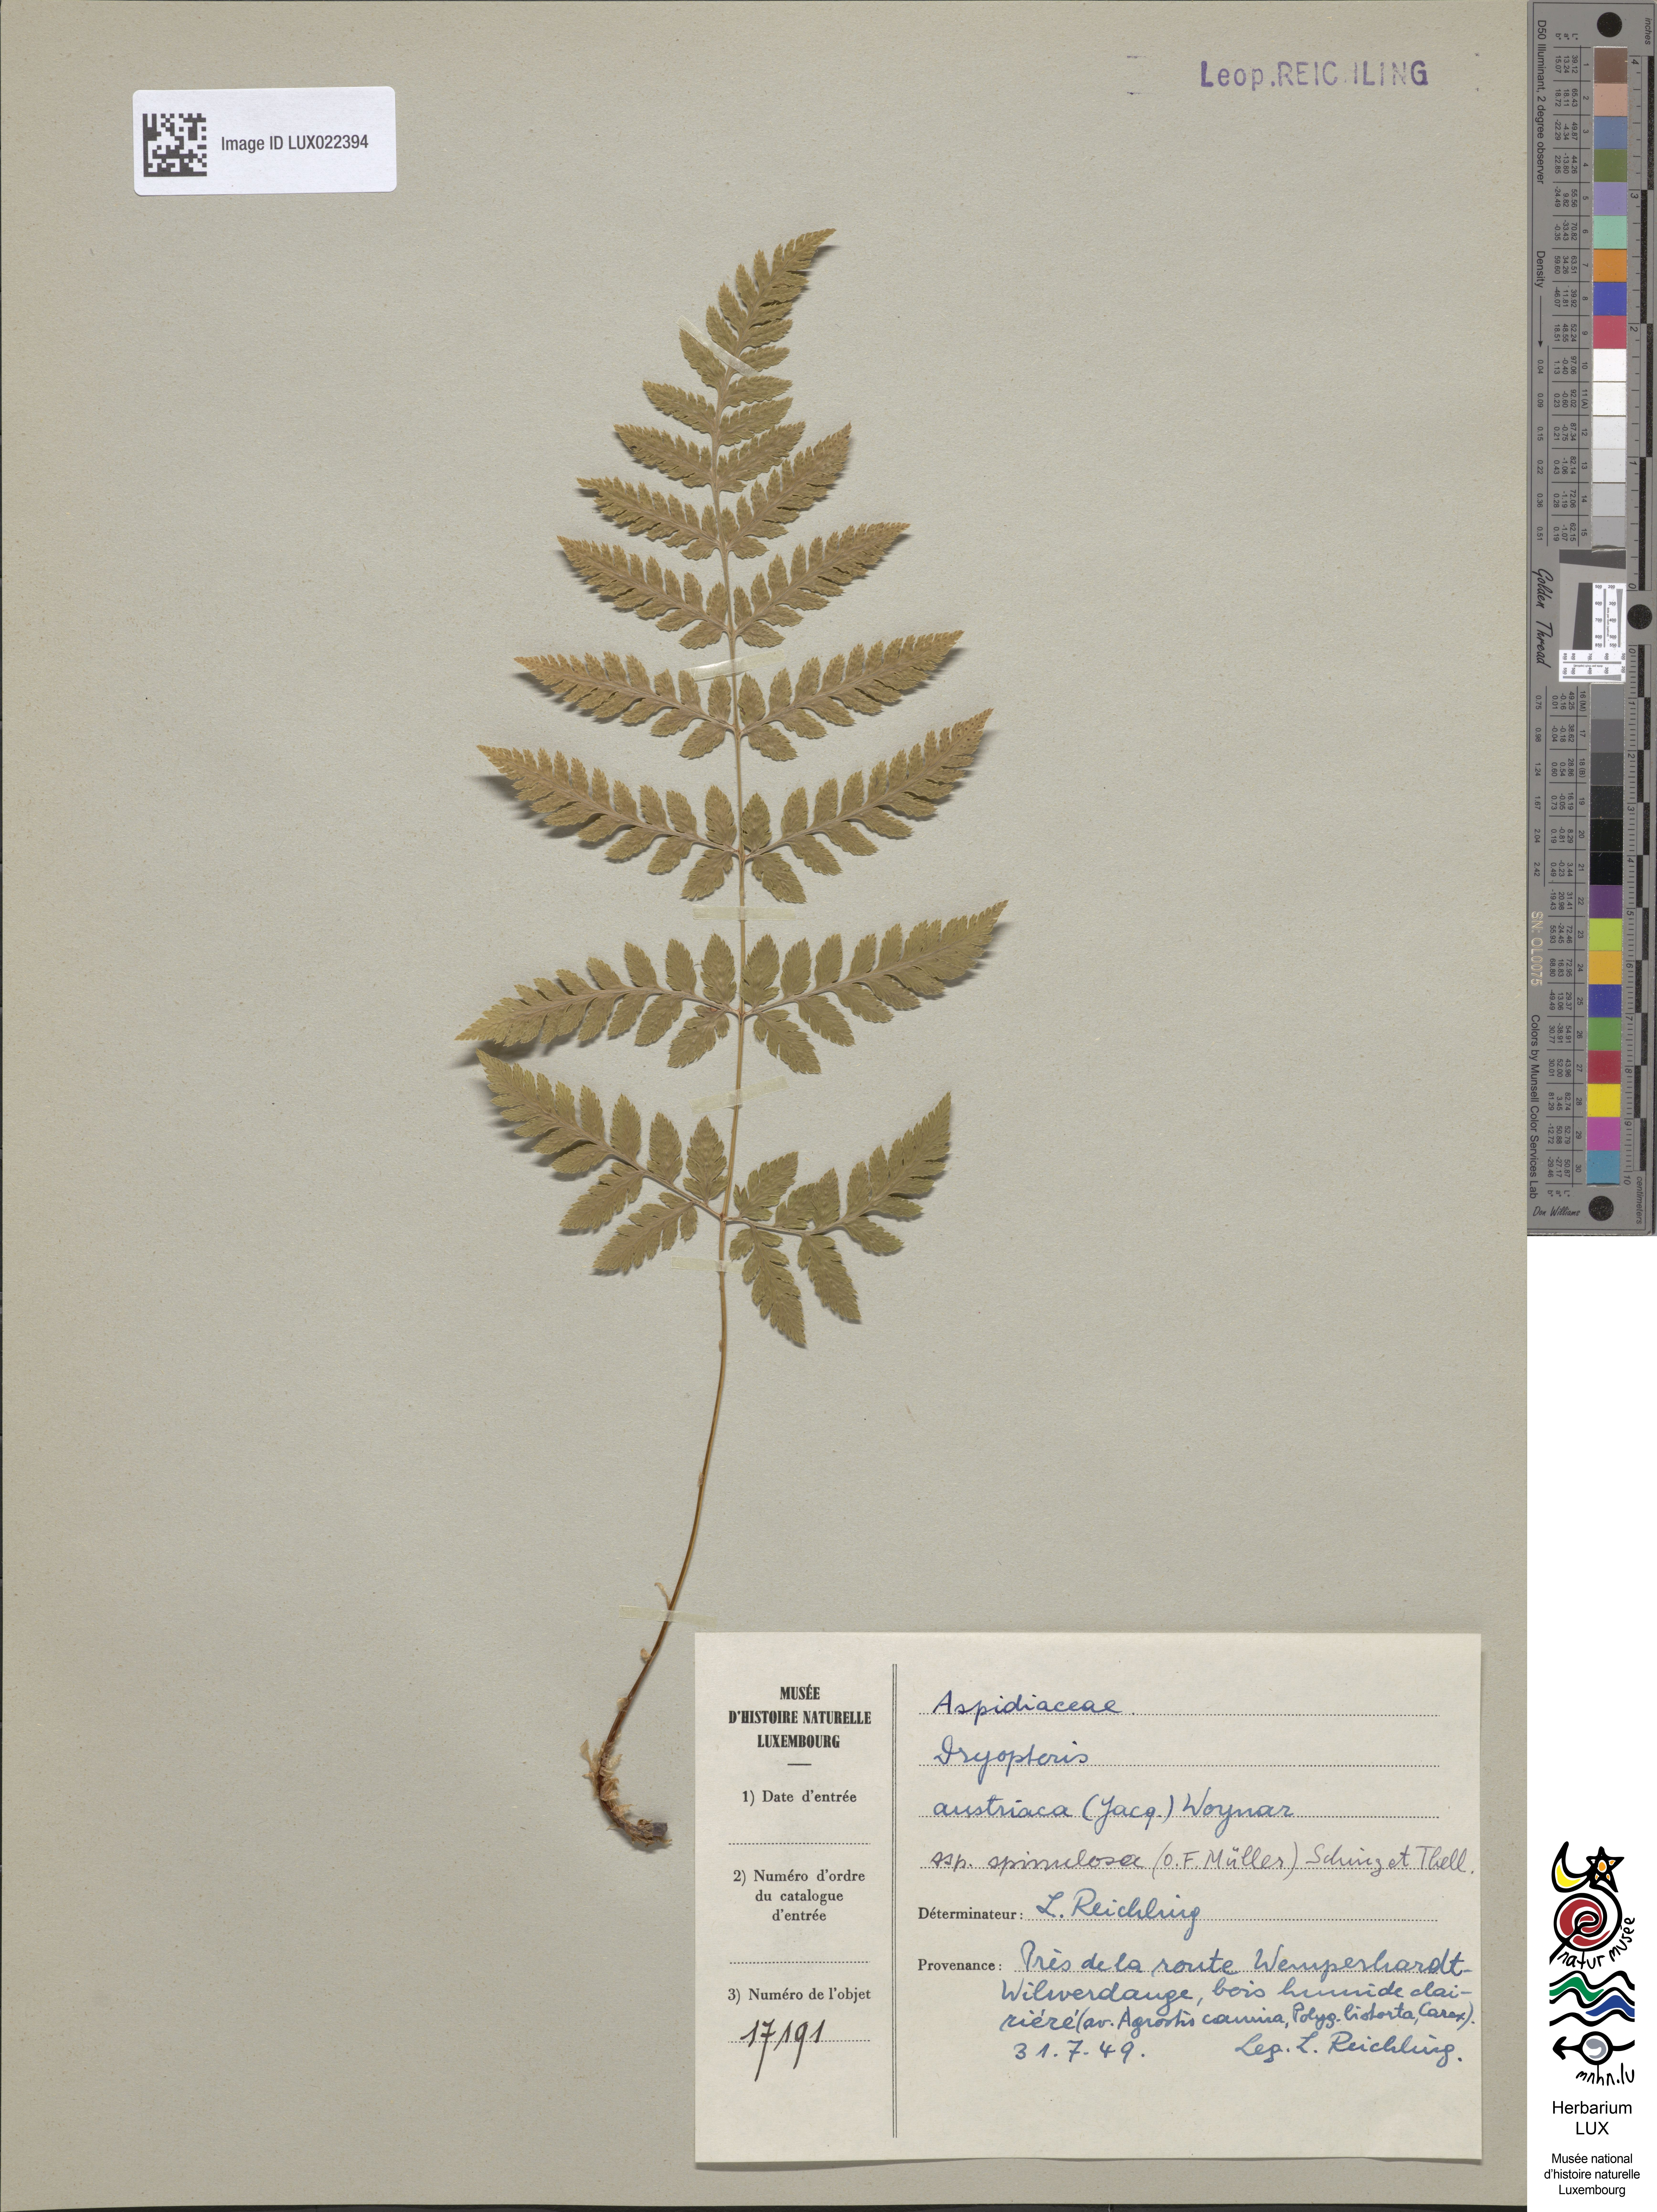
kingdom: Plantae
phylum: Tracheophyta
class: Polypodiopsida
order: Polypodiales
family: Dryopteridaceae
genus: Dryopteris
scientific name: Dryopteris carthusiana
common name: Narrow buckler-fern
